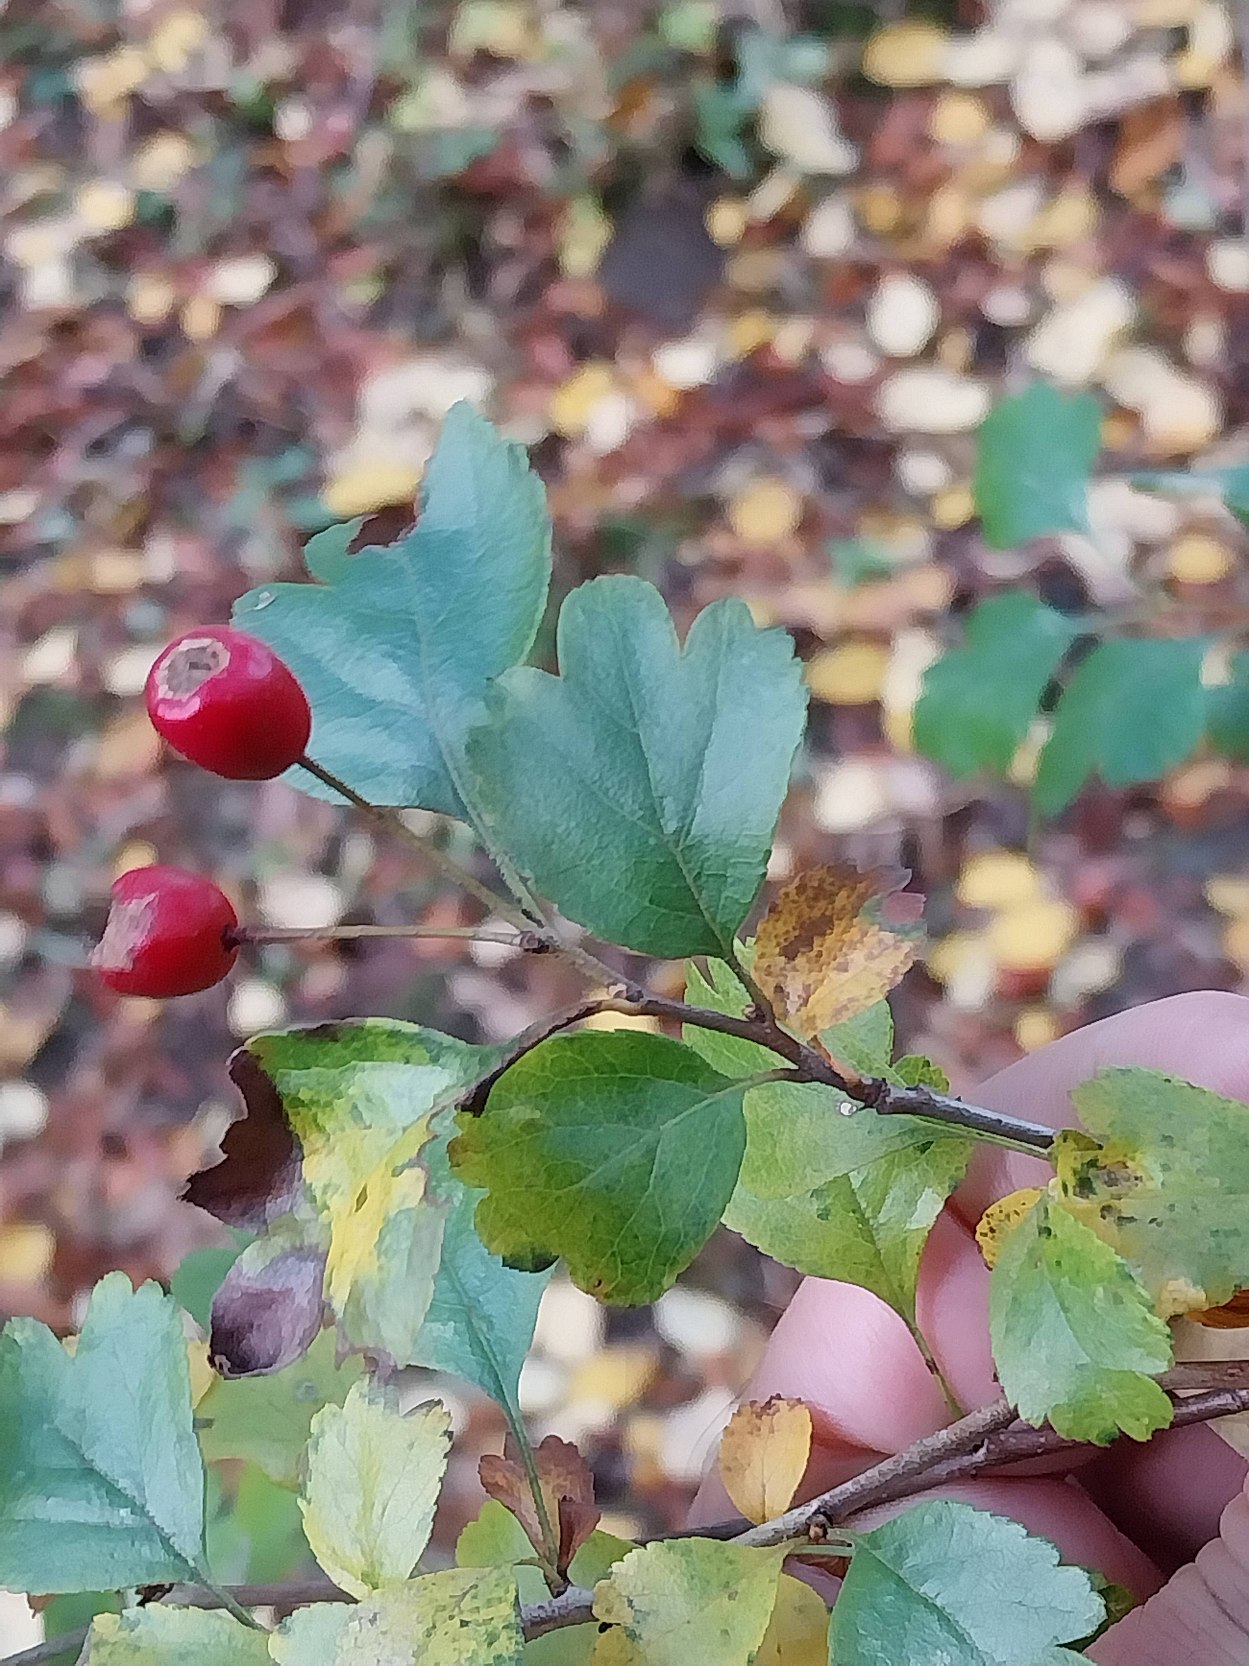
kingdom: Plantae
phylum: Tracheophyta
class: Magnoliopsida
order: Rosales
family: Rosaceae
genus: Crataegus
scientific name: Crataegus laevigata
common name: Almindelig hvidtjørn
